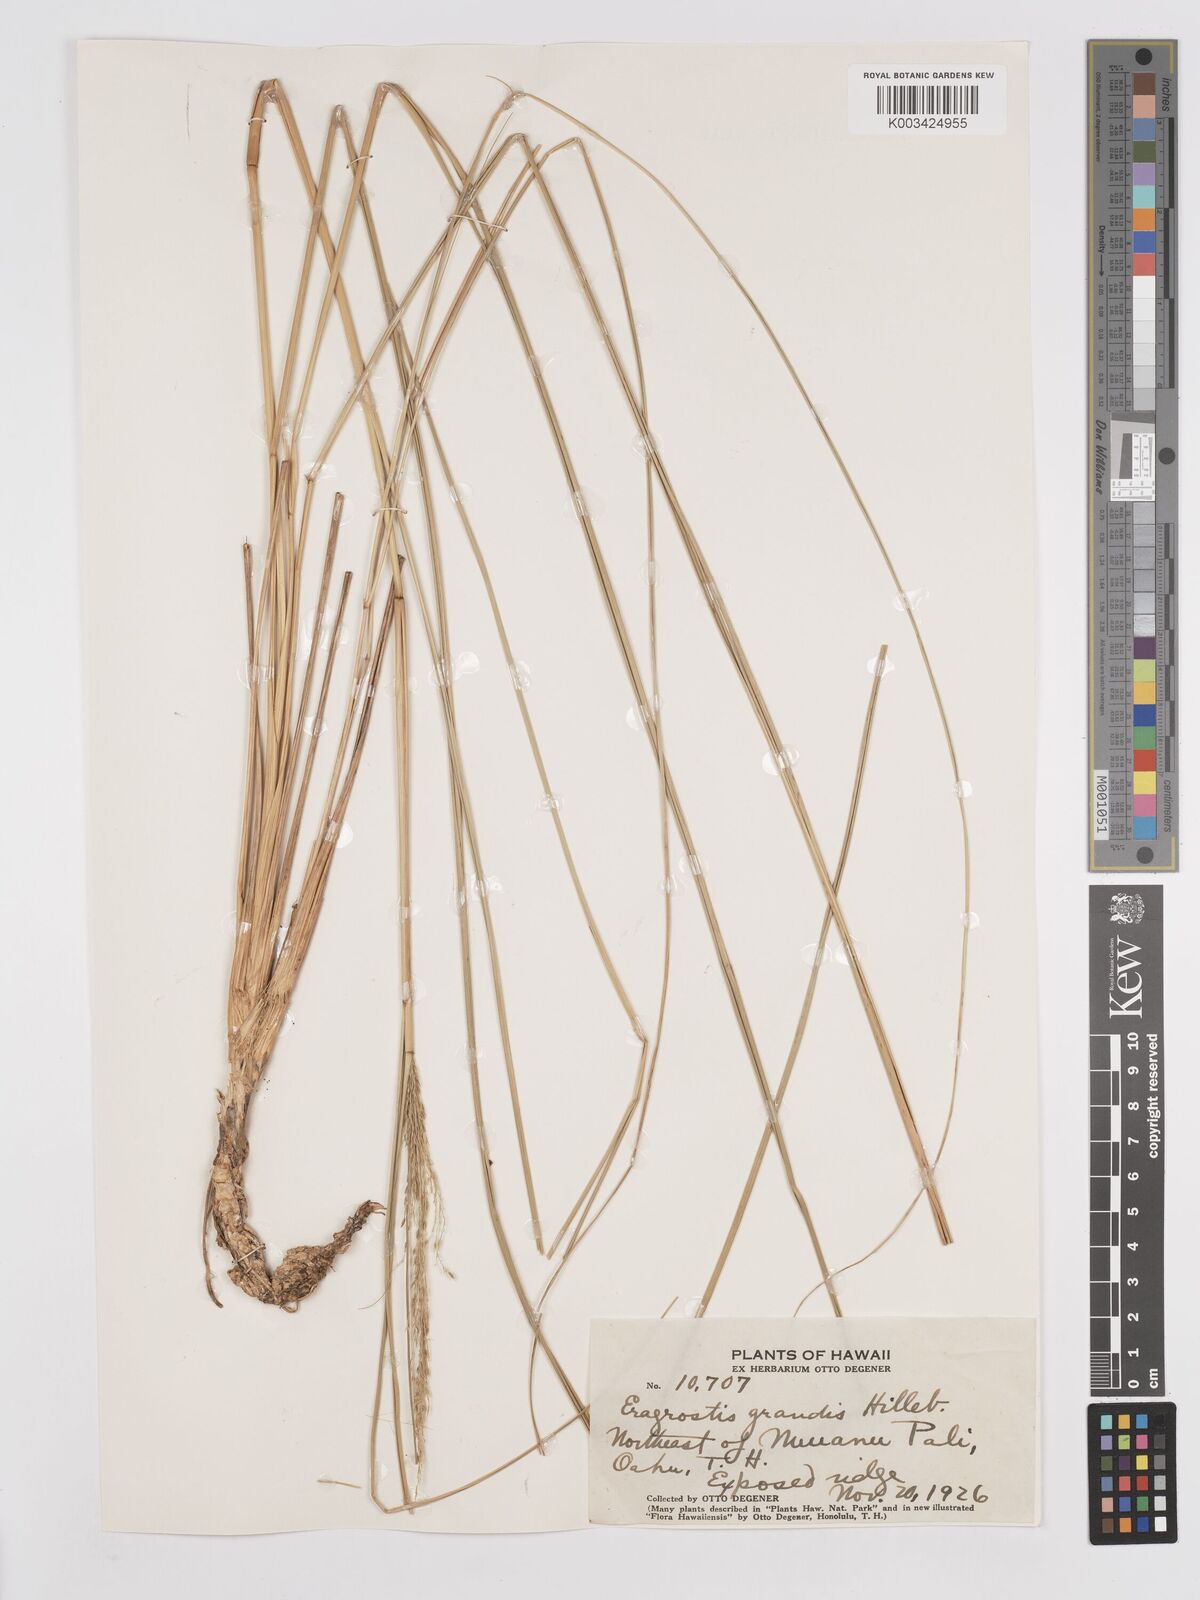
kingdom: Plantae
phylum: Tracheophyta
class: Liliopsida
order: Poales
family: Poaceae
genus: Eragrostis
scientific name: Eragrostis grandis
